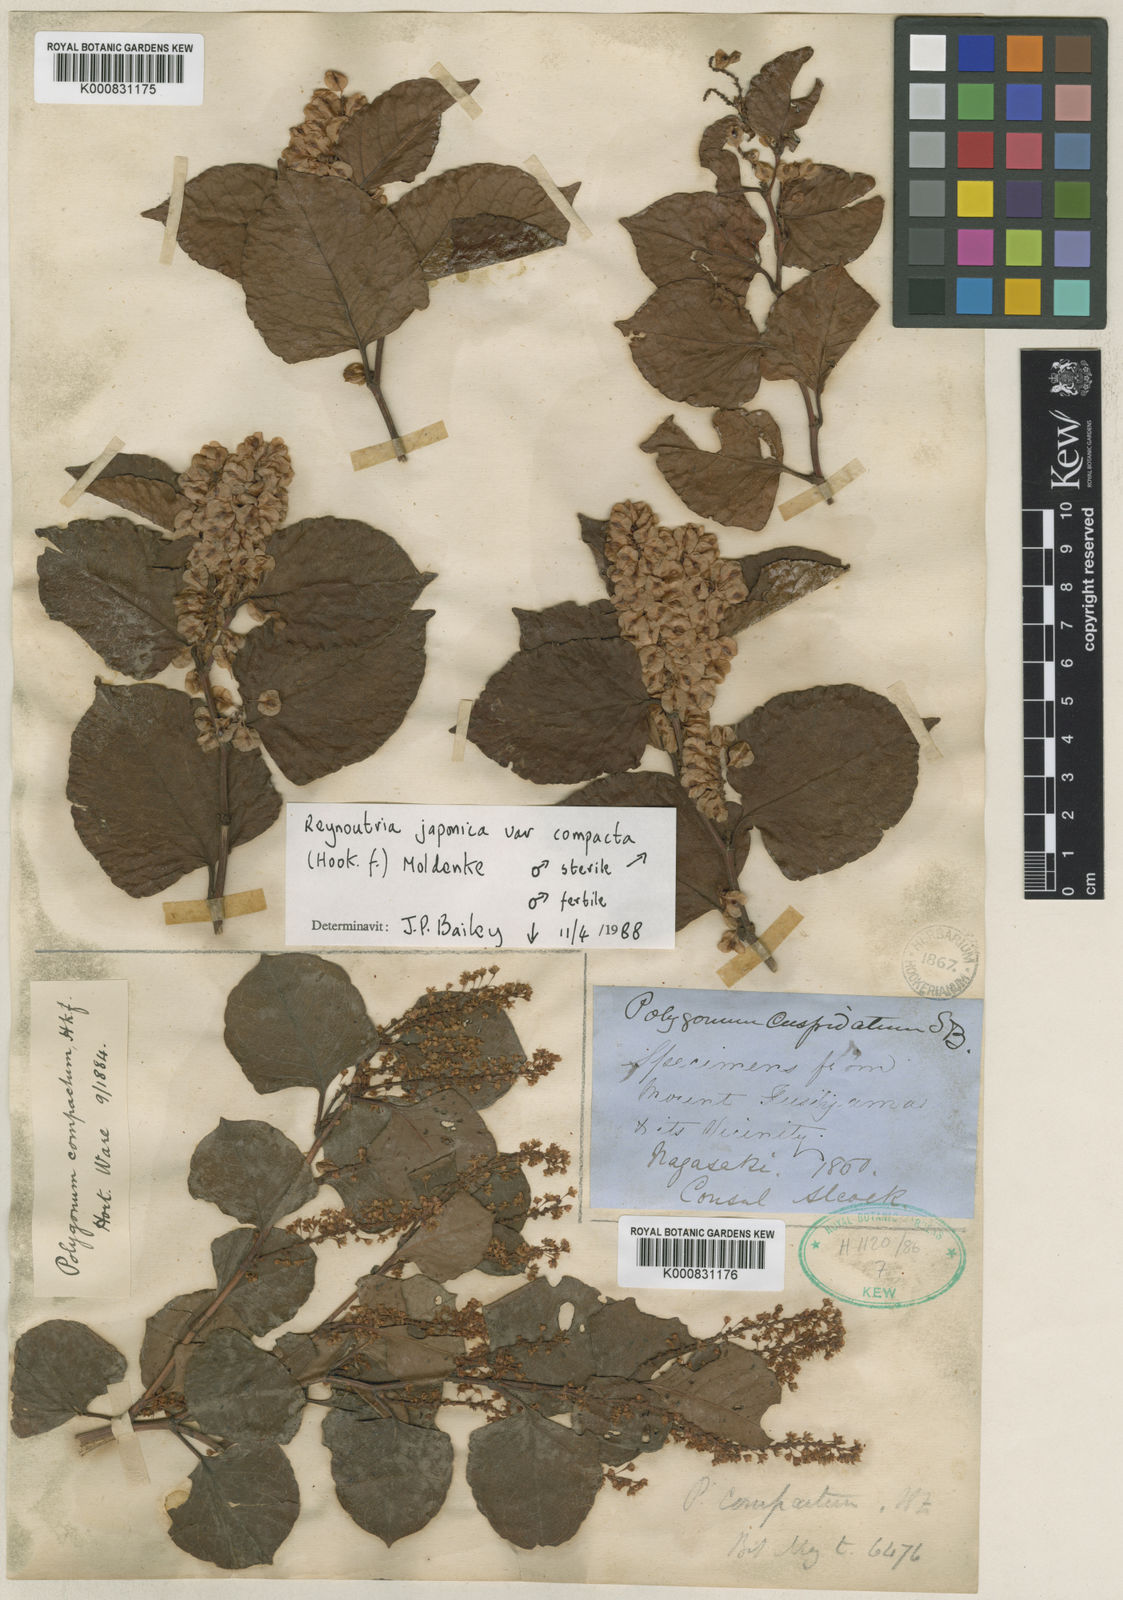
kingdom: Plantae
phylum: Tracheophyta
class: Magnoliopsida
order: Caryophyllales
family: Polygonaceae
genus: Reynoutria
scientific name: Reynoutria japonica
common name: Japanese knotweed
